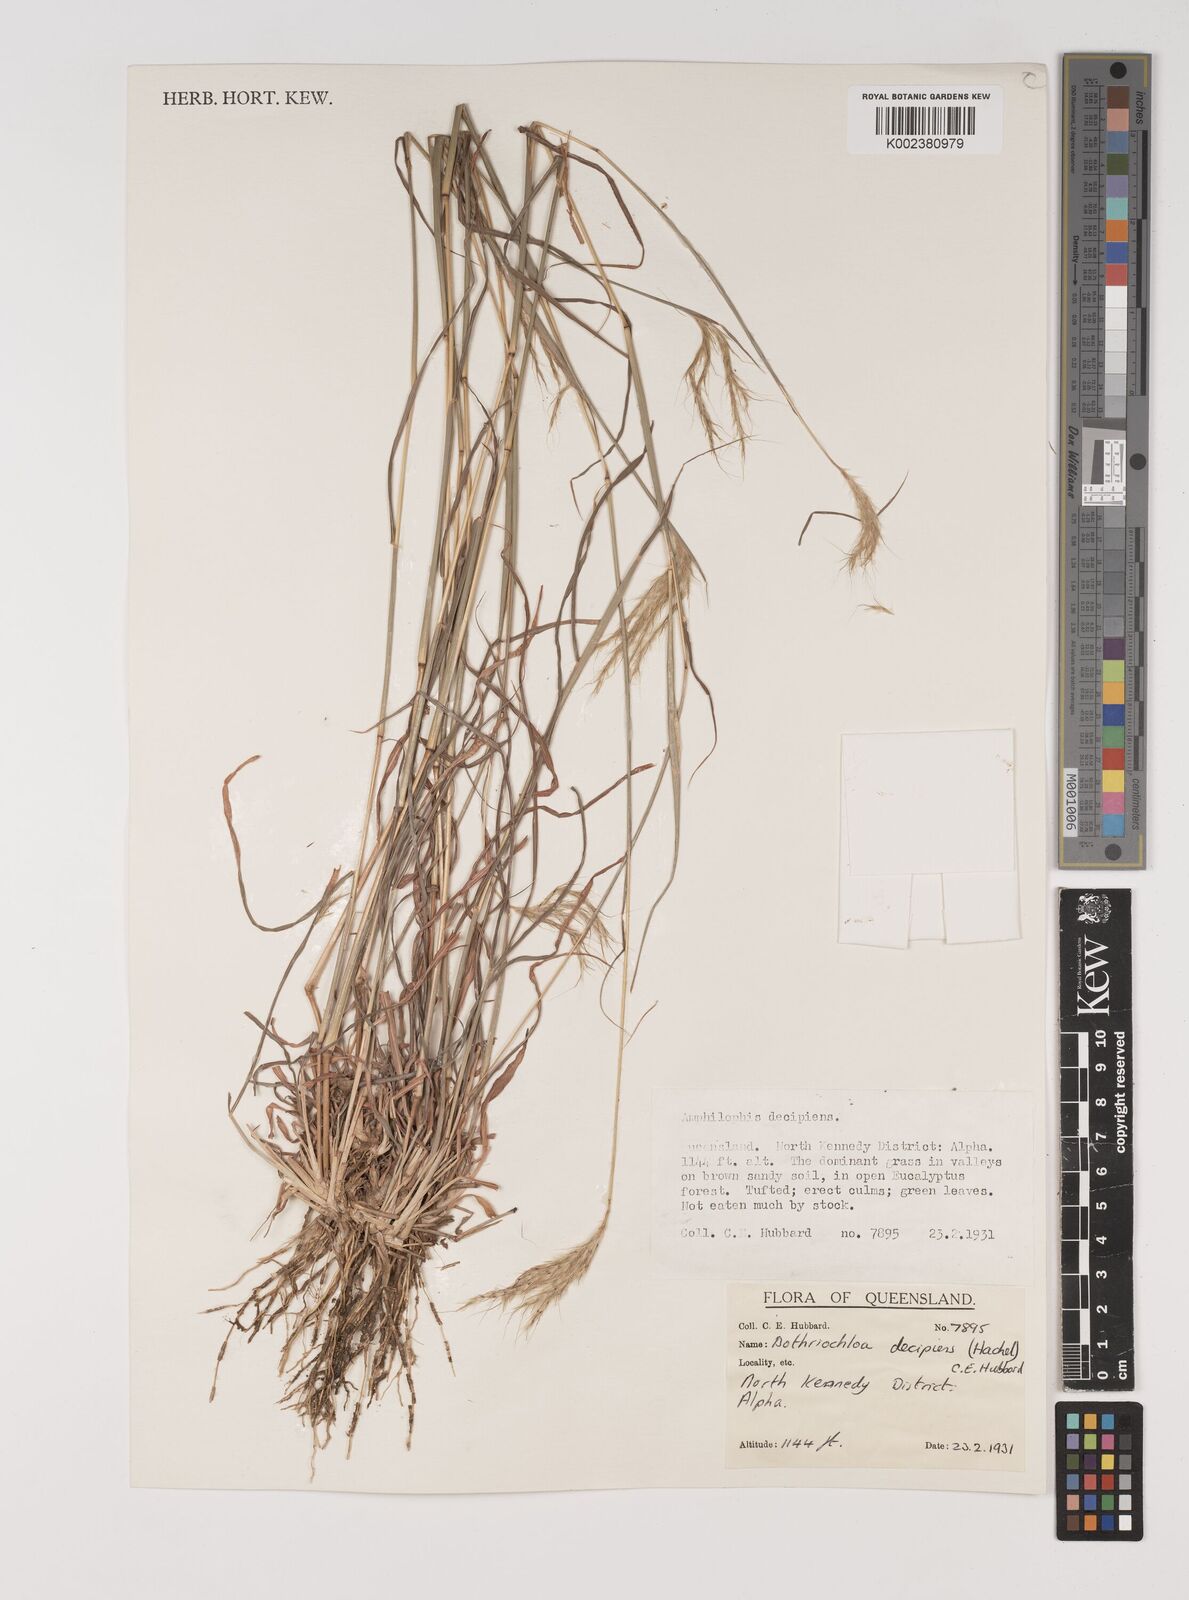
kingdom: Plantae
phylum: Tracheophyta
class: Liliopsida
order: Poales
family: Poaceae
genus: Bothriochloa
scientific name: Bothriochloa decipiens
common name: Pitted-bluegrass
